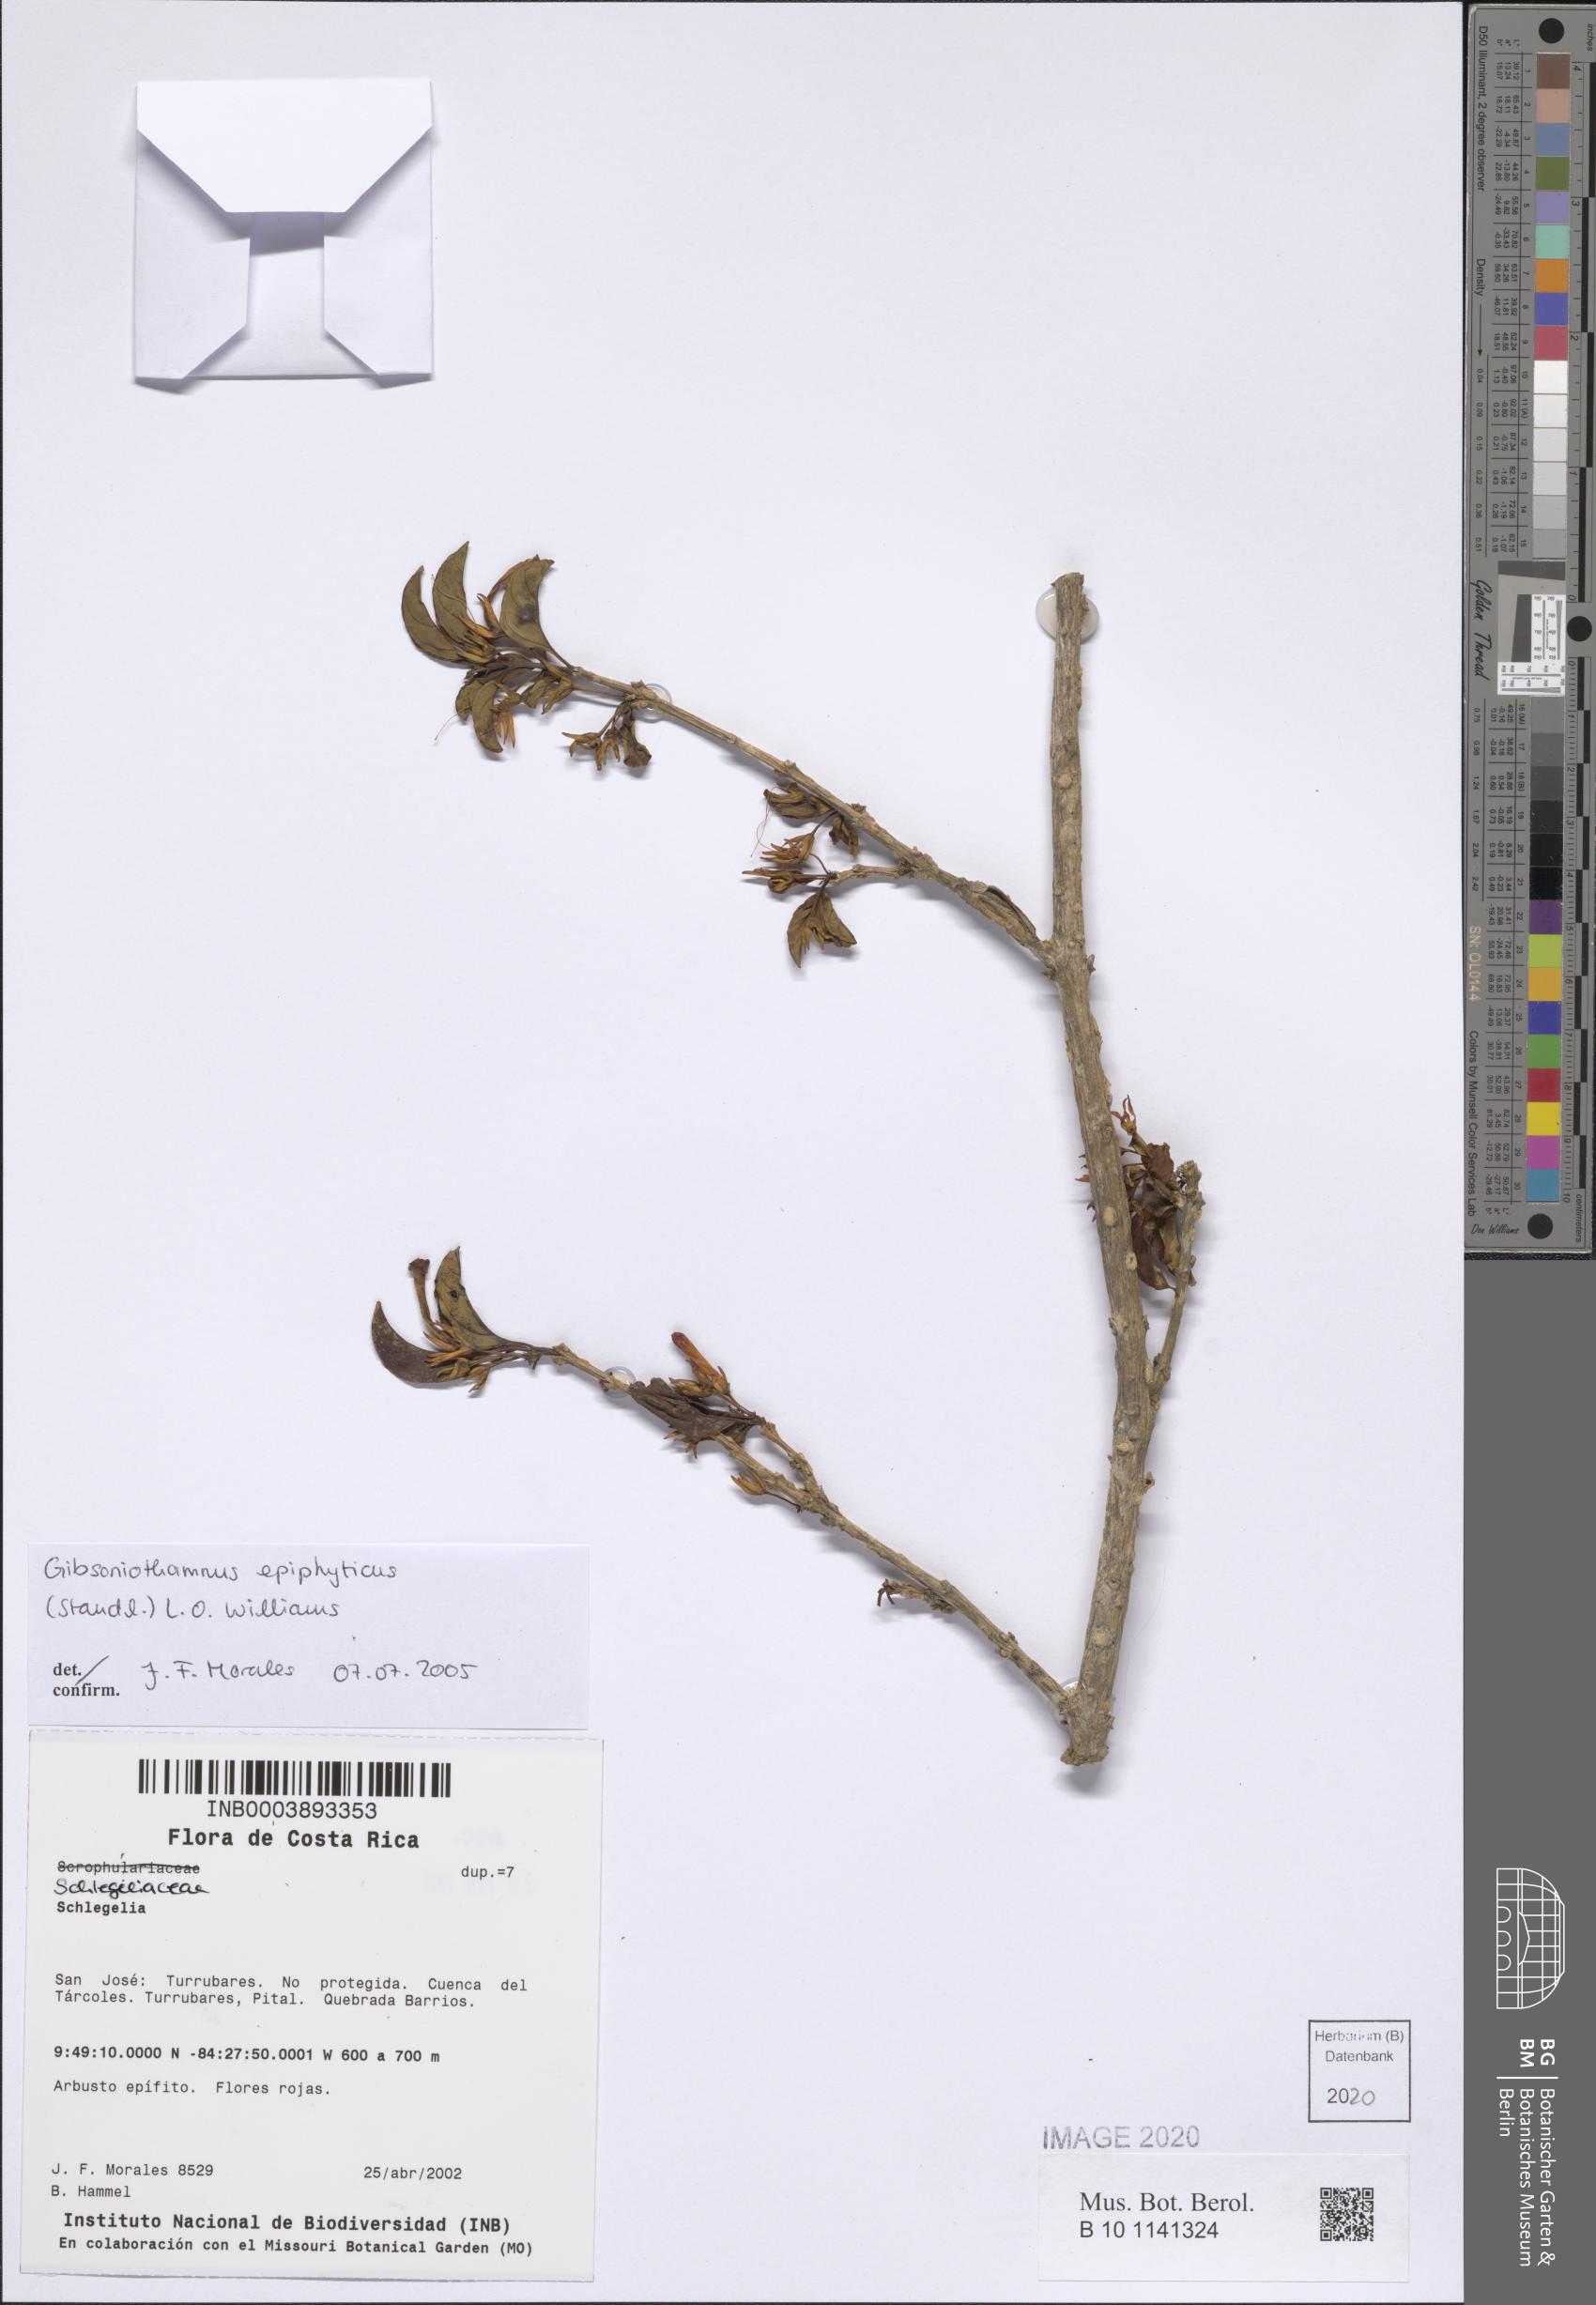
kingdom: Plantae
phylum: Tracheophyta
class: Magnoliopsida
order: Lamiales
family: Schlegeliaceae
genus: Gibsoniothamnus
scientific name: Gibsoniothamnus epiphyticus
